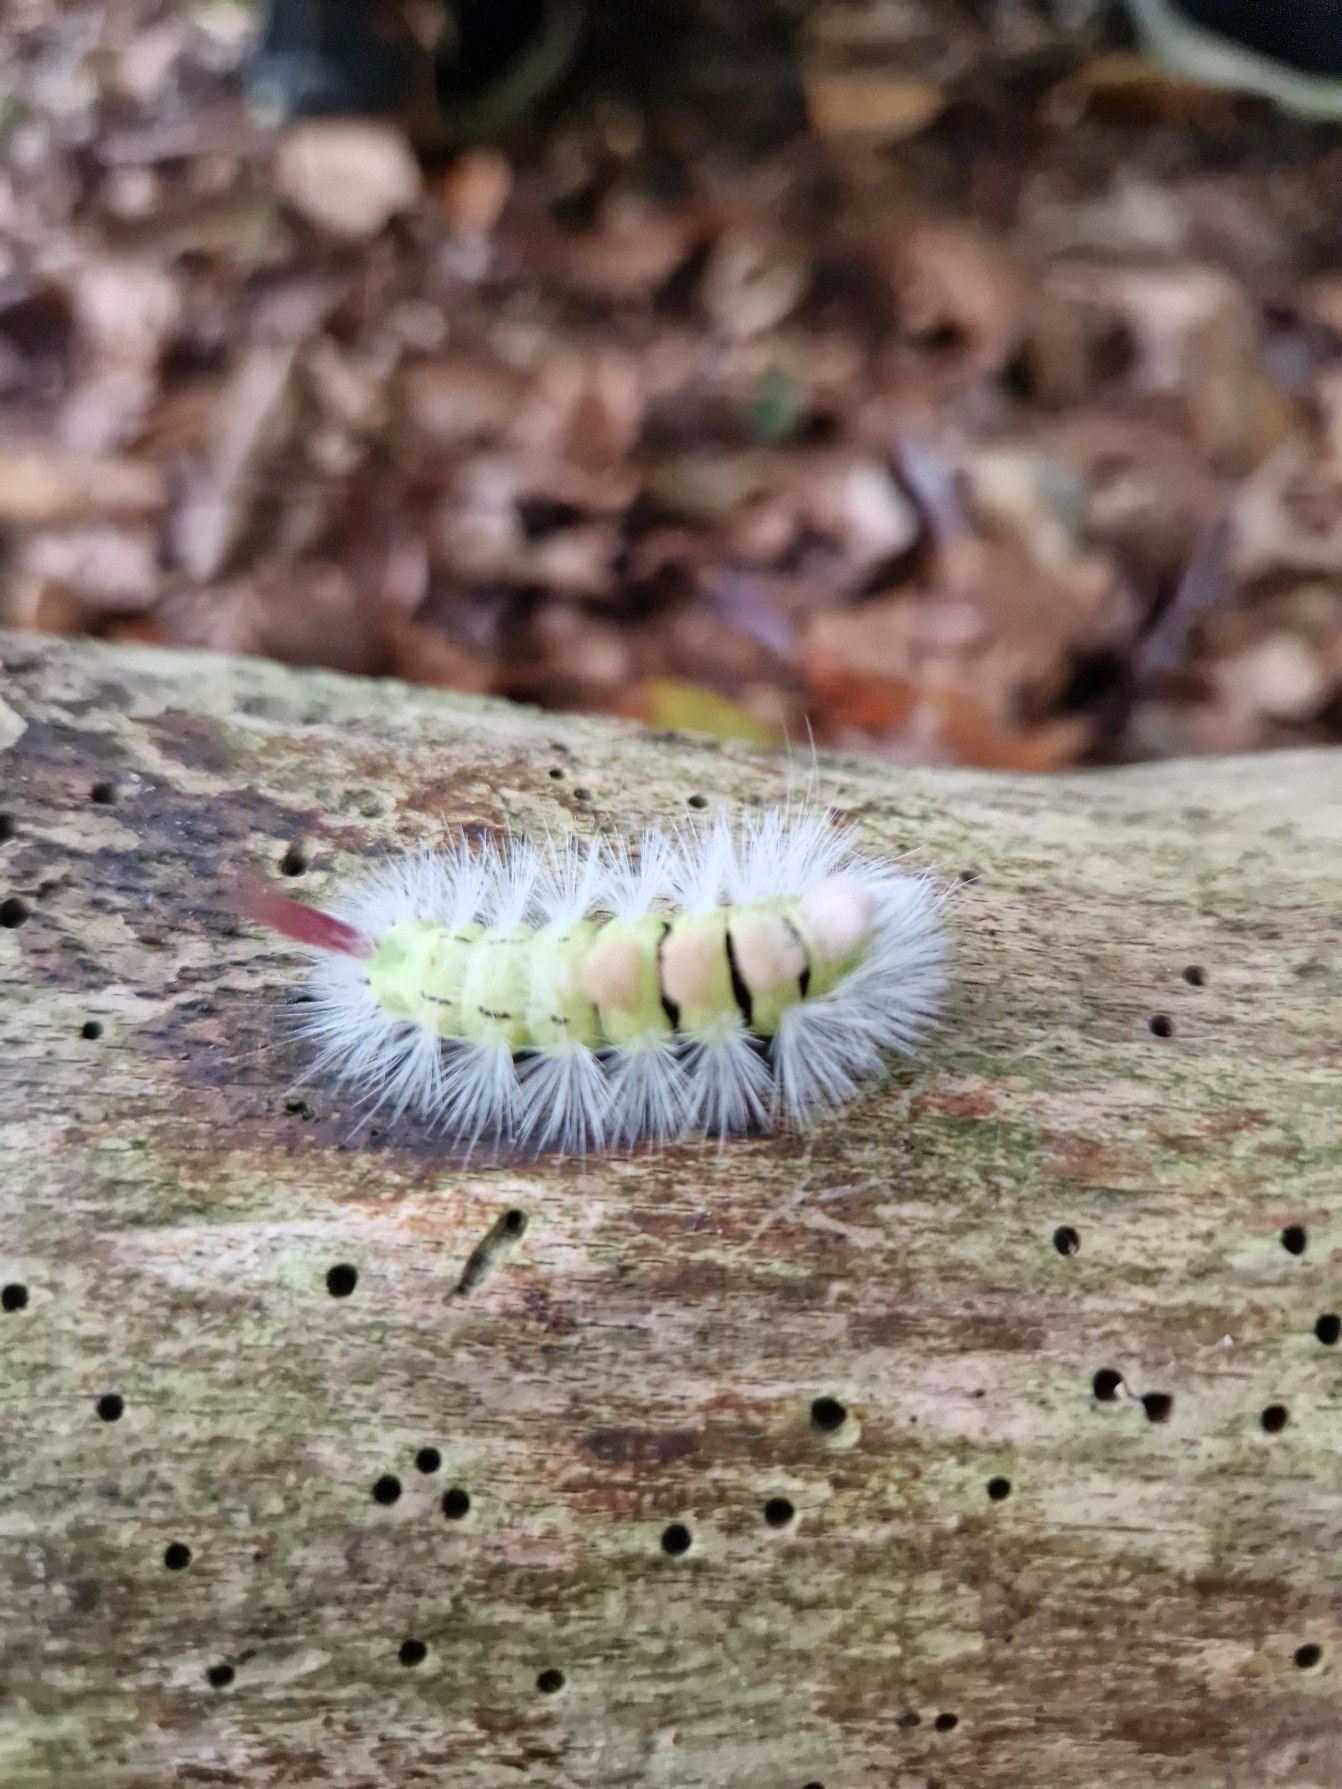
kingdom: Animalia
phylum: Arthropoda
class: Insecta
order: Lepidoptera
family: Erebidae
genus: Calliteara
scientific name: Calliteara pudibunda
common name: Bøgenonne
